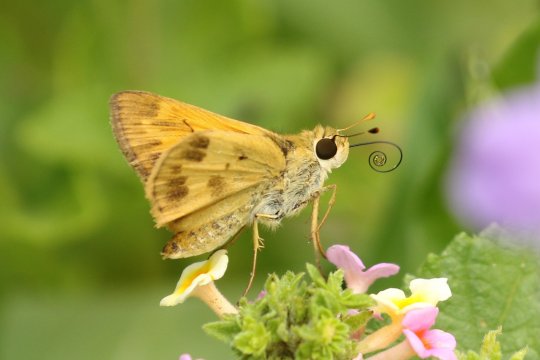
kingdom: Animalia
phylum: Arthropoda
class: Insecta
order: Lepidoptera
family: Hesperiidae
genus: Polites
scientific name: Polites vibex
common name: Whirlabout
